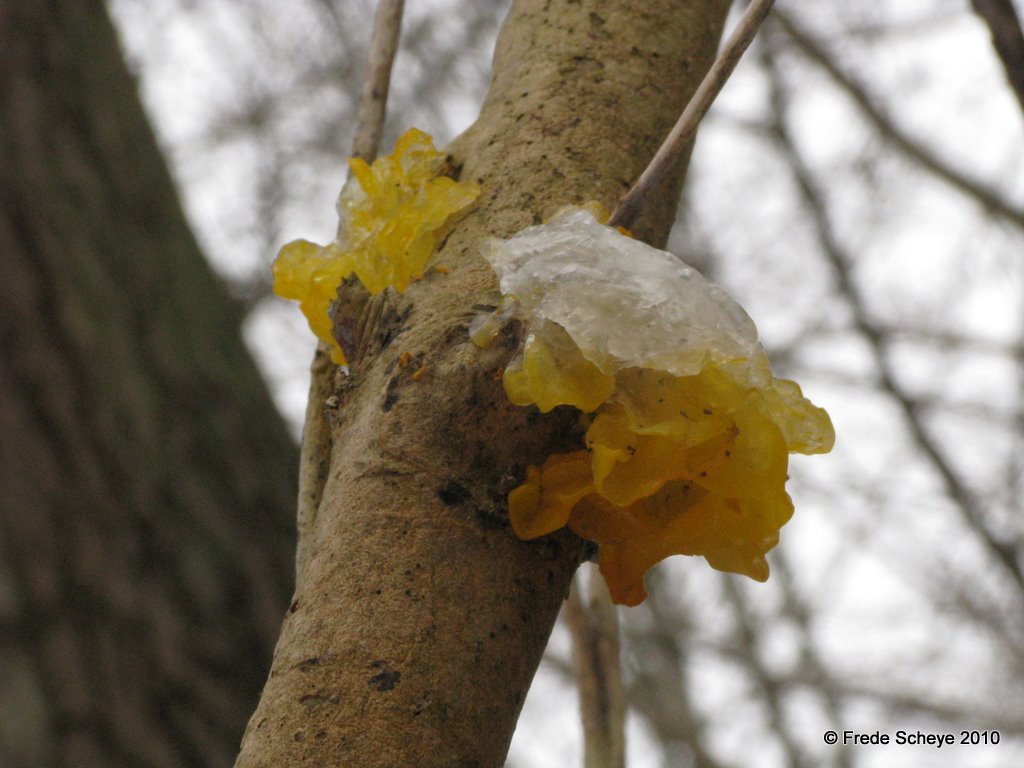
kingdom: Fungi
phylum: Basidiomycota
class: Tremellomycetes
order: Tremellales
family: Tremellaceae
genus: Tremella
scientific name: Tremella mesenterica
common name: gul bævresvamp
